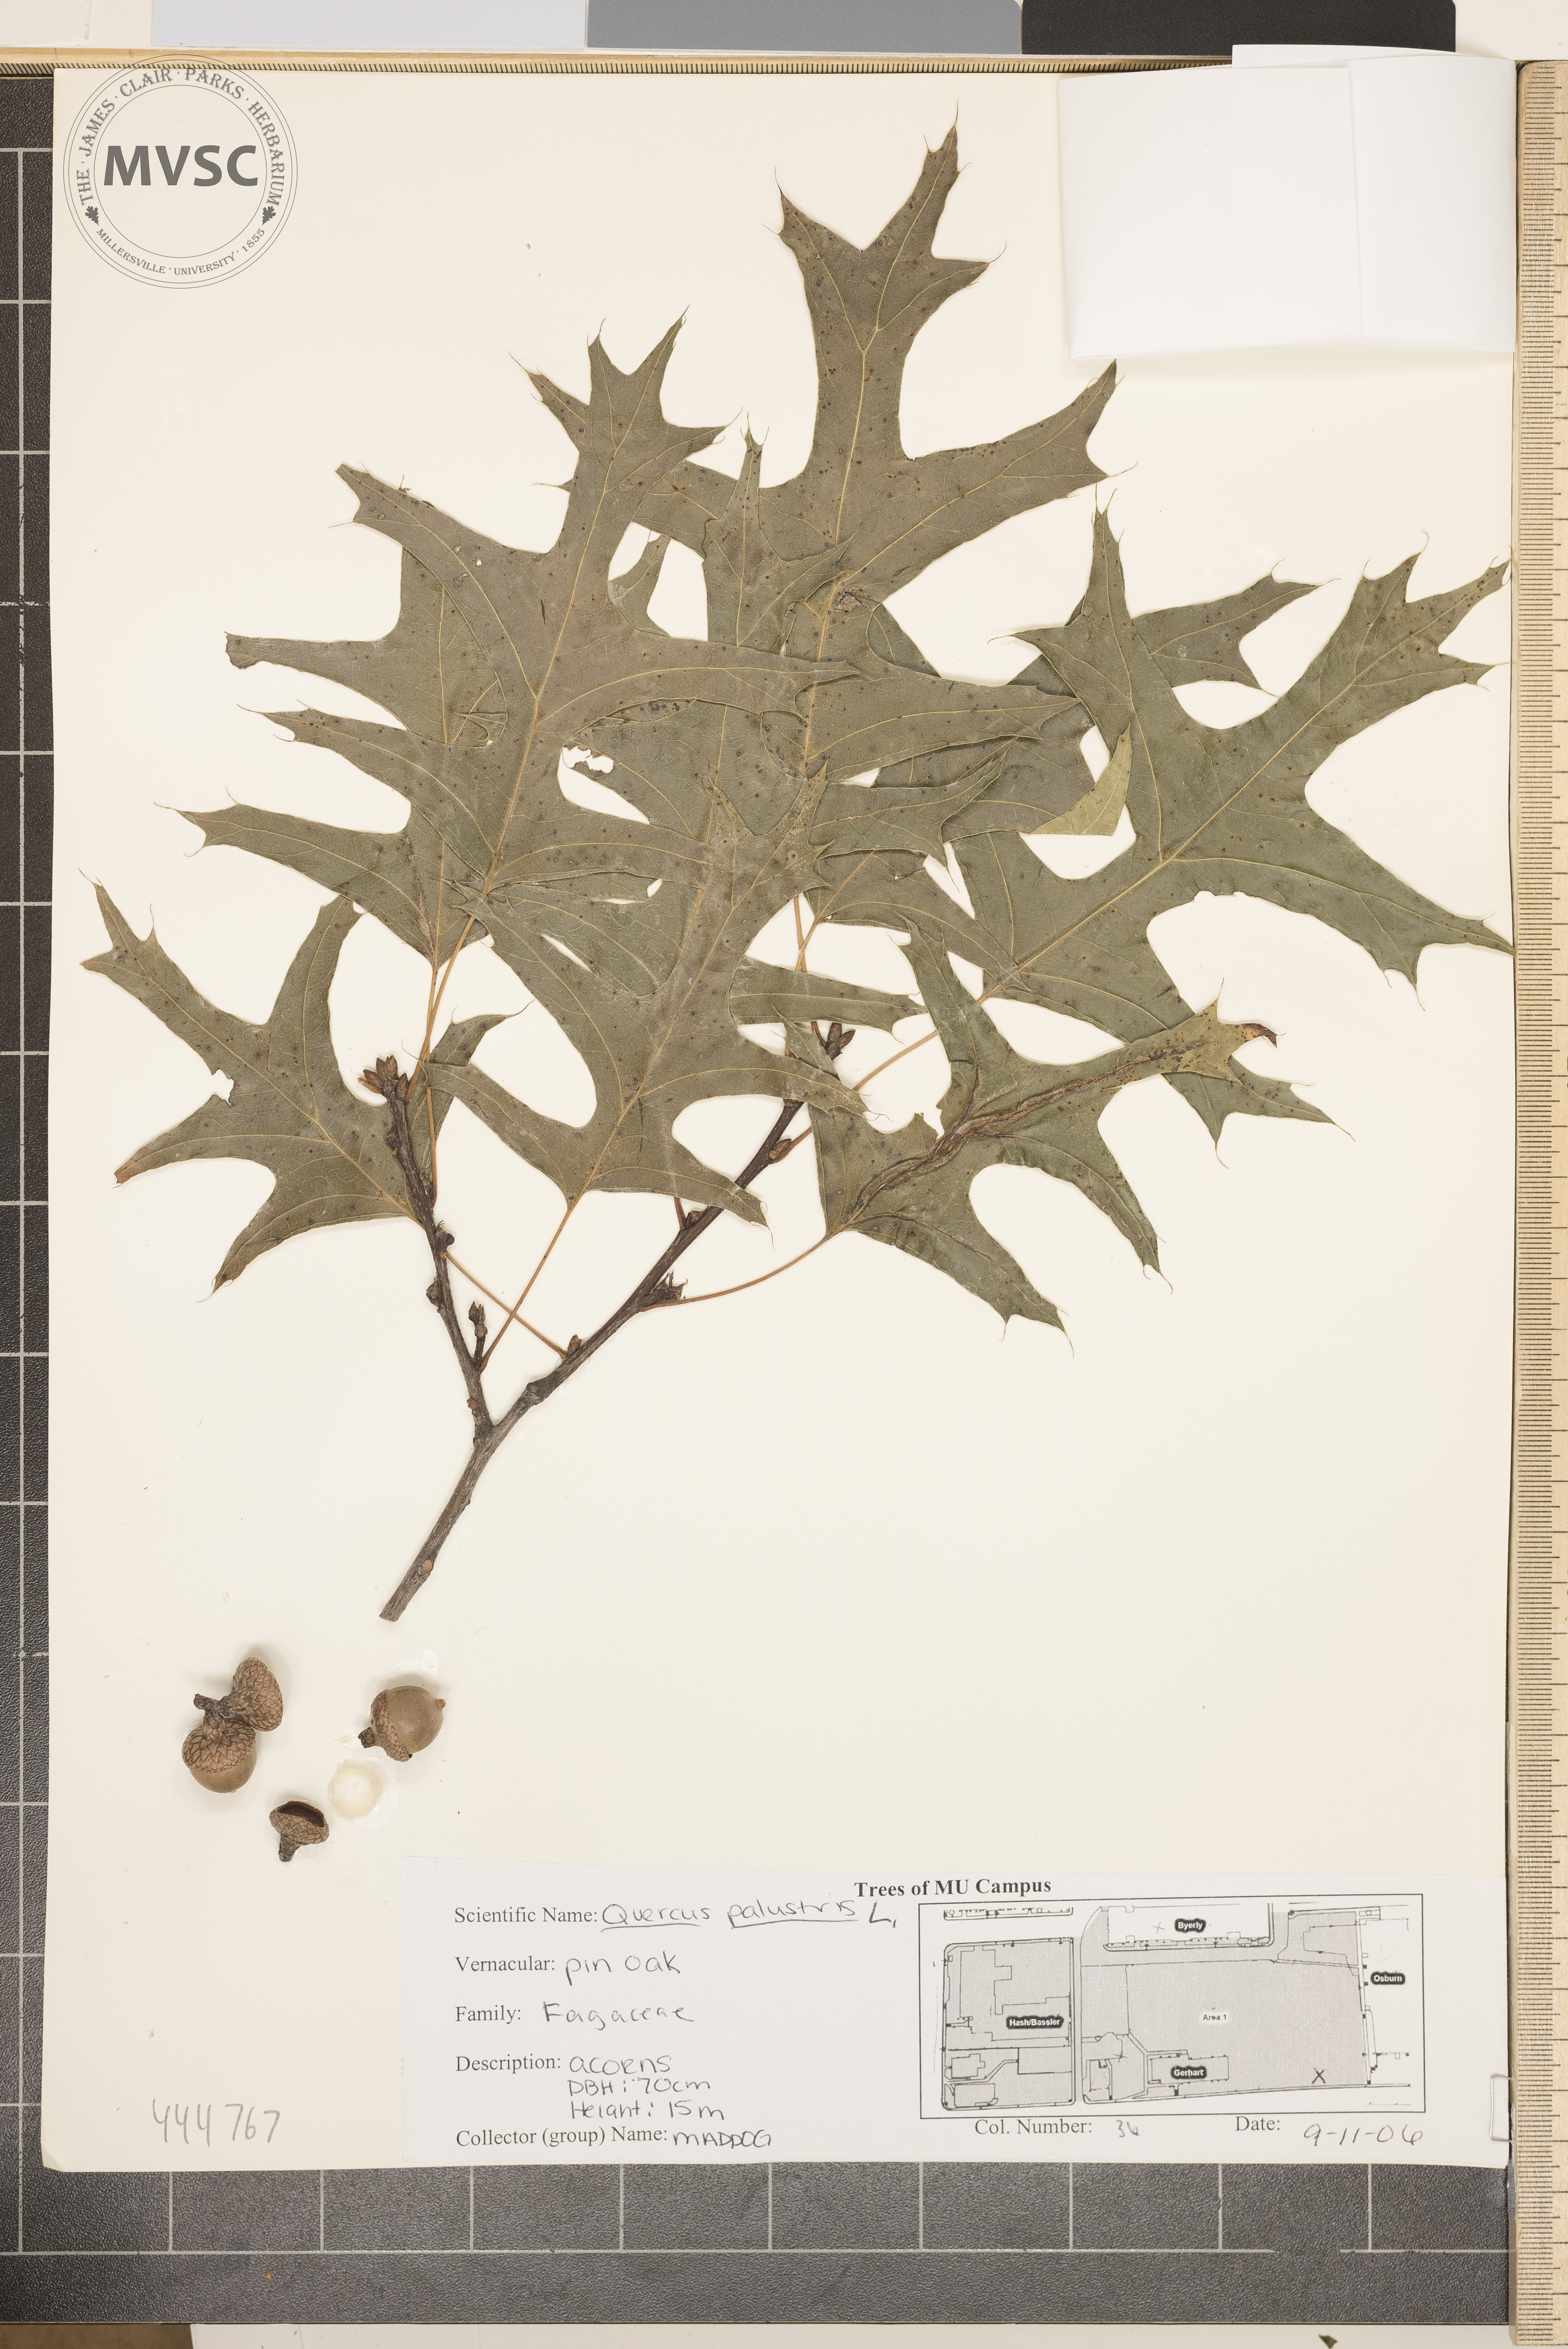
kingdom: Plantae
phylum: Tracheophyta
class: Magnoliopsida
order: Fagales
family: Fagaceae
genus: Quercus
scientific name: Quercus palustris
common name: Pin oak
